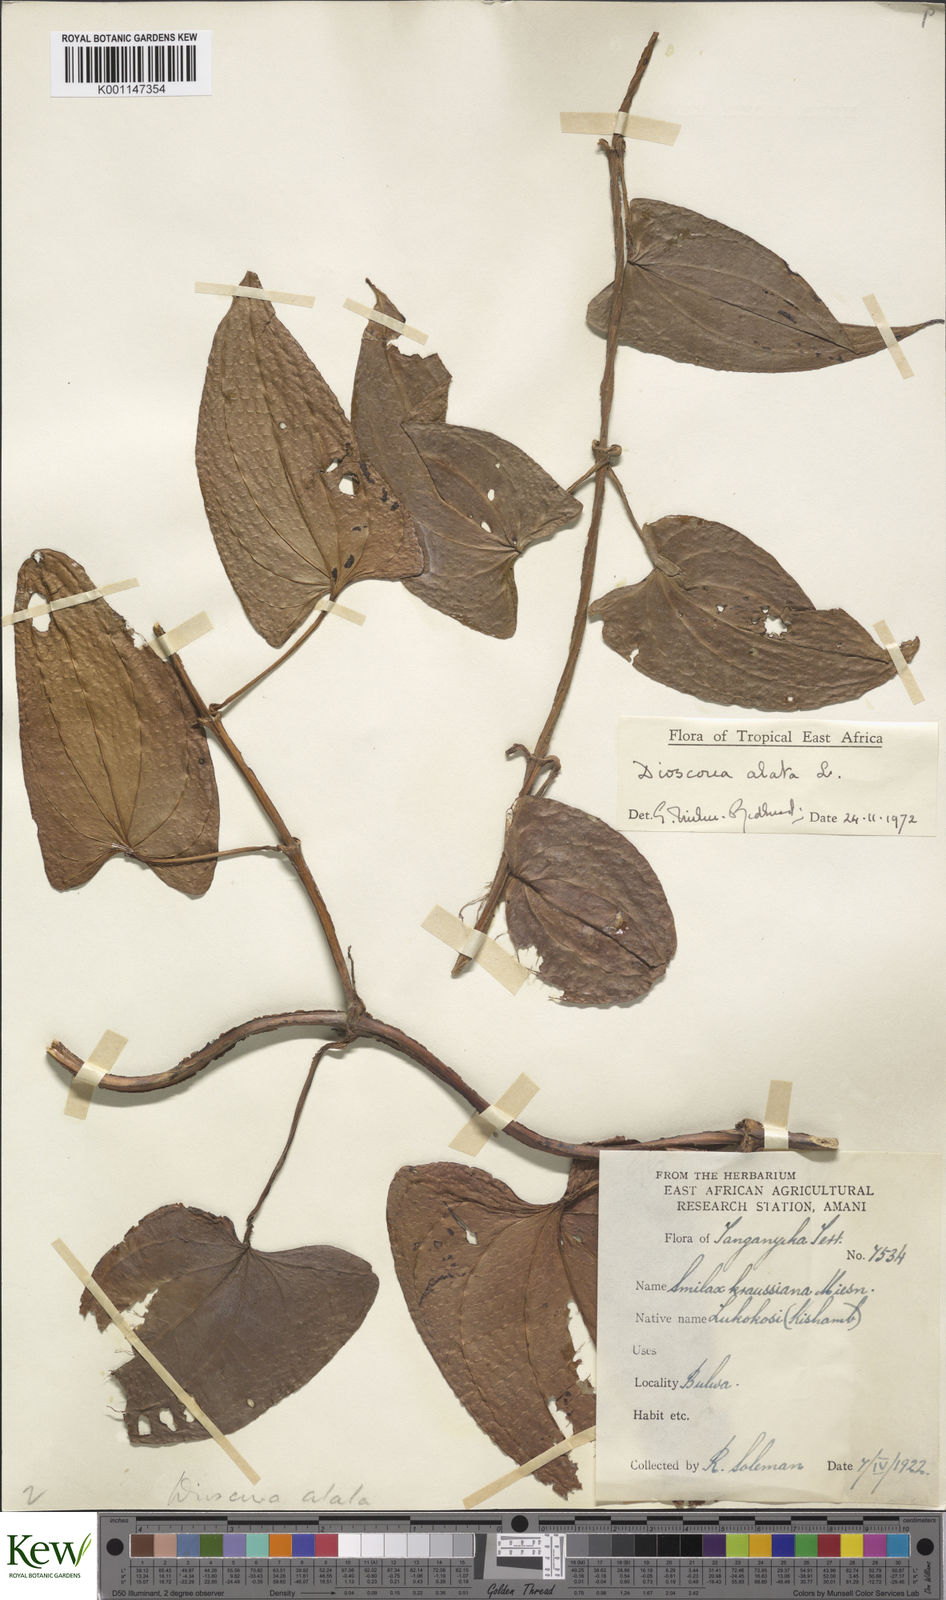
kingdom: Plantae
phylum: Tracheophyta
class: Liliopsida
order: Dioscoreales
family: Dioscoreaceae
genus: Dioscorea
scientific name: Dioscorea alata
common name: Water yam
